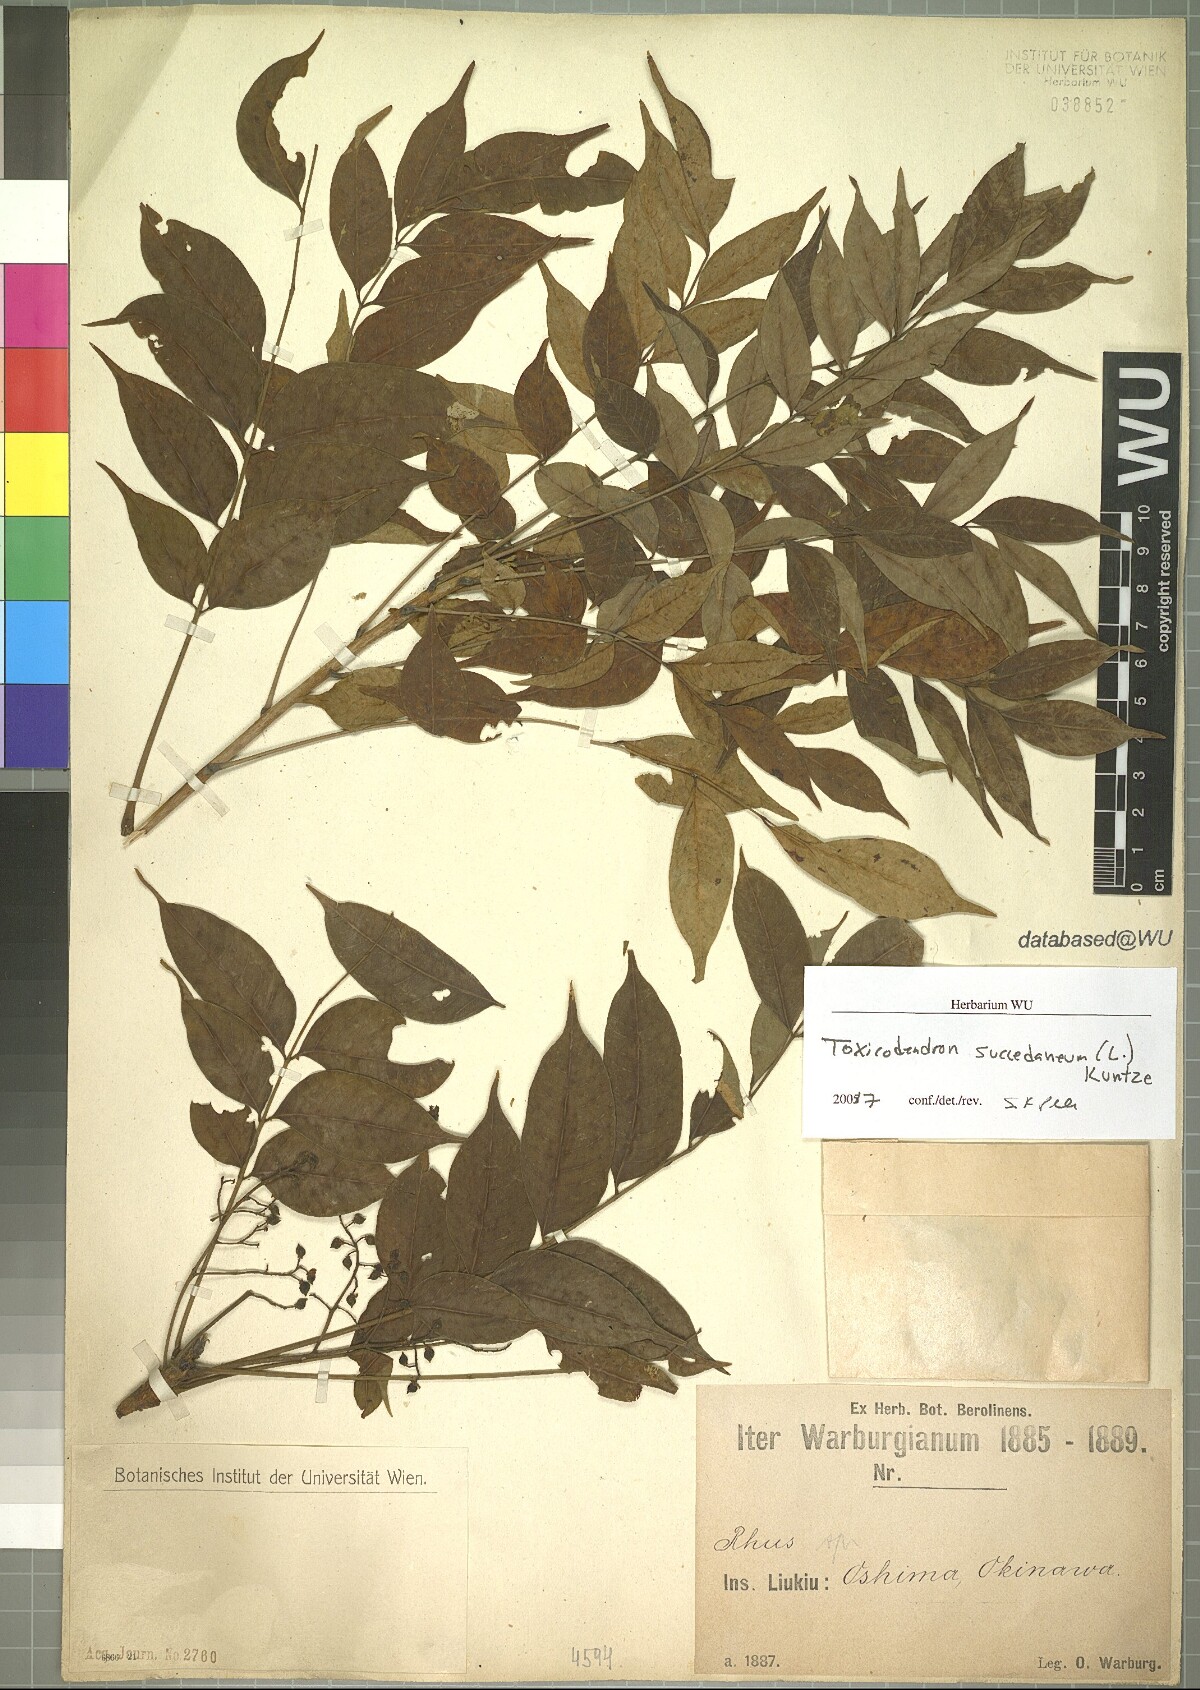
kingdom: Plantae
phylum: Tracheophyta
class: Magnoliopsida
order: Sapindales
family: Anacardiaceae
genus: Toxicodendron
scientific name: Toxicodendron succedaneum
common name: Wax tree
